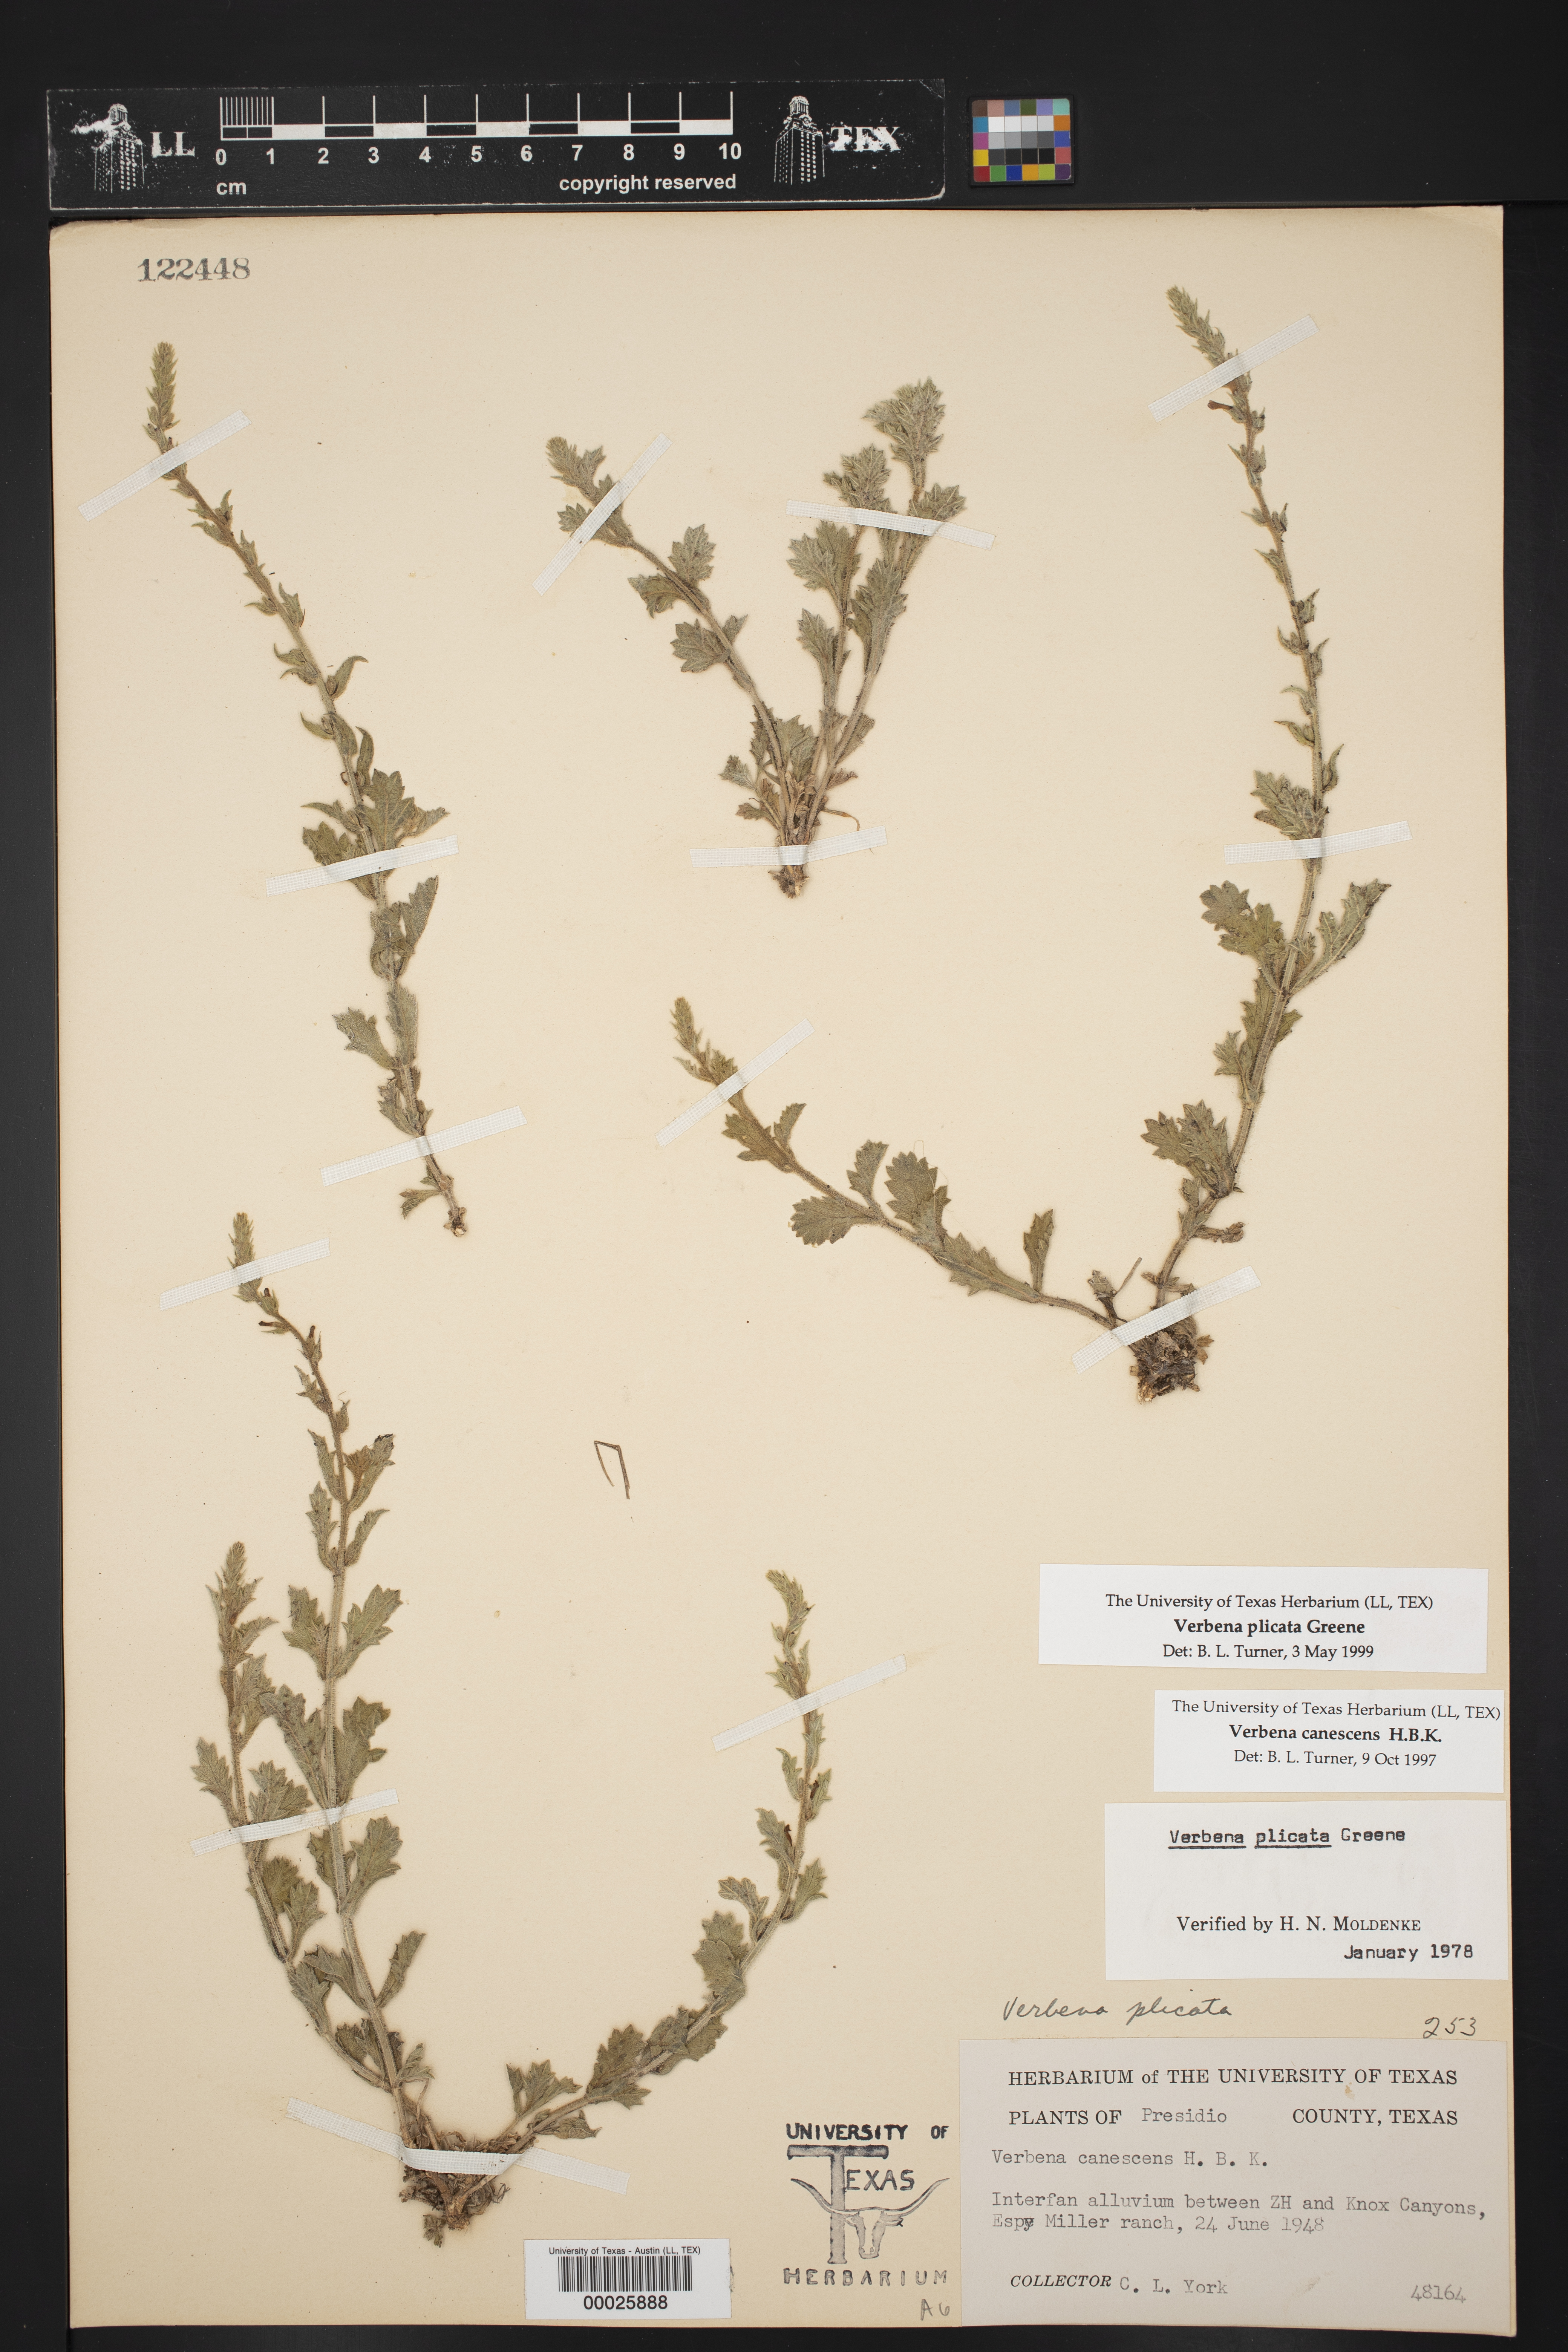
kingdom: Plantae
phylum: Tracheophyta
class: Magnoliopsida
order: Lamiales
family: Verbenaceae
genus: Verbena
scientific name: Verbena plicata
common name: Fan-leaf vervain
